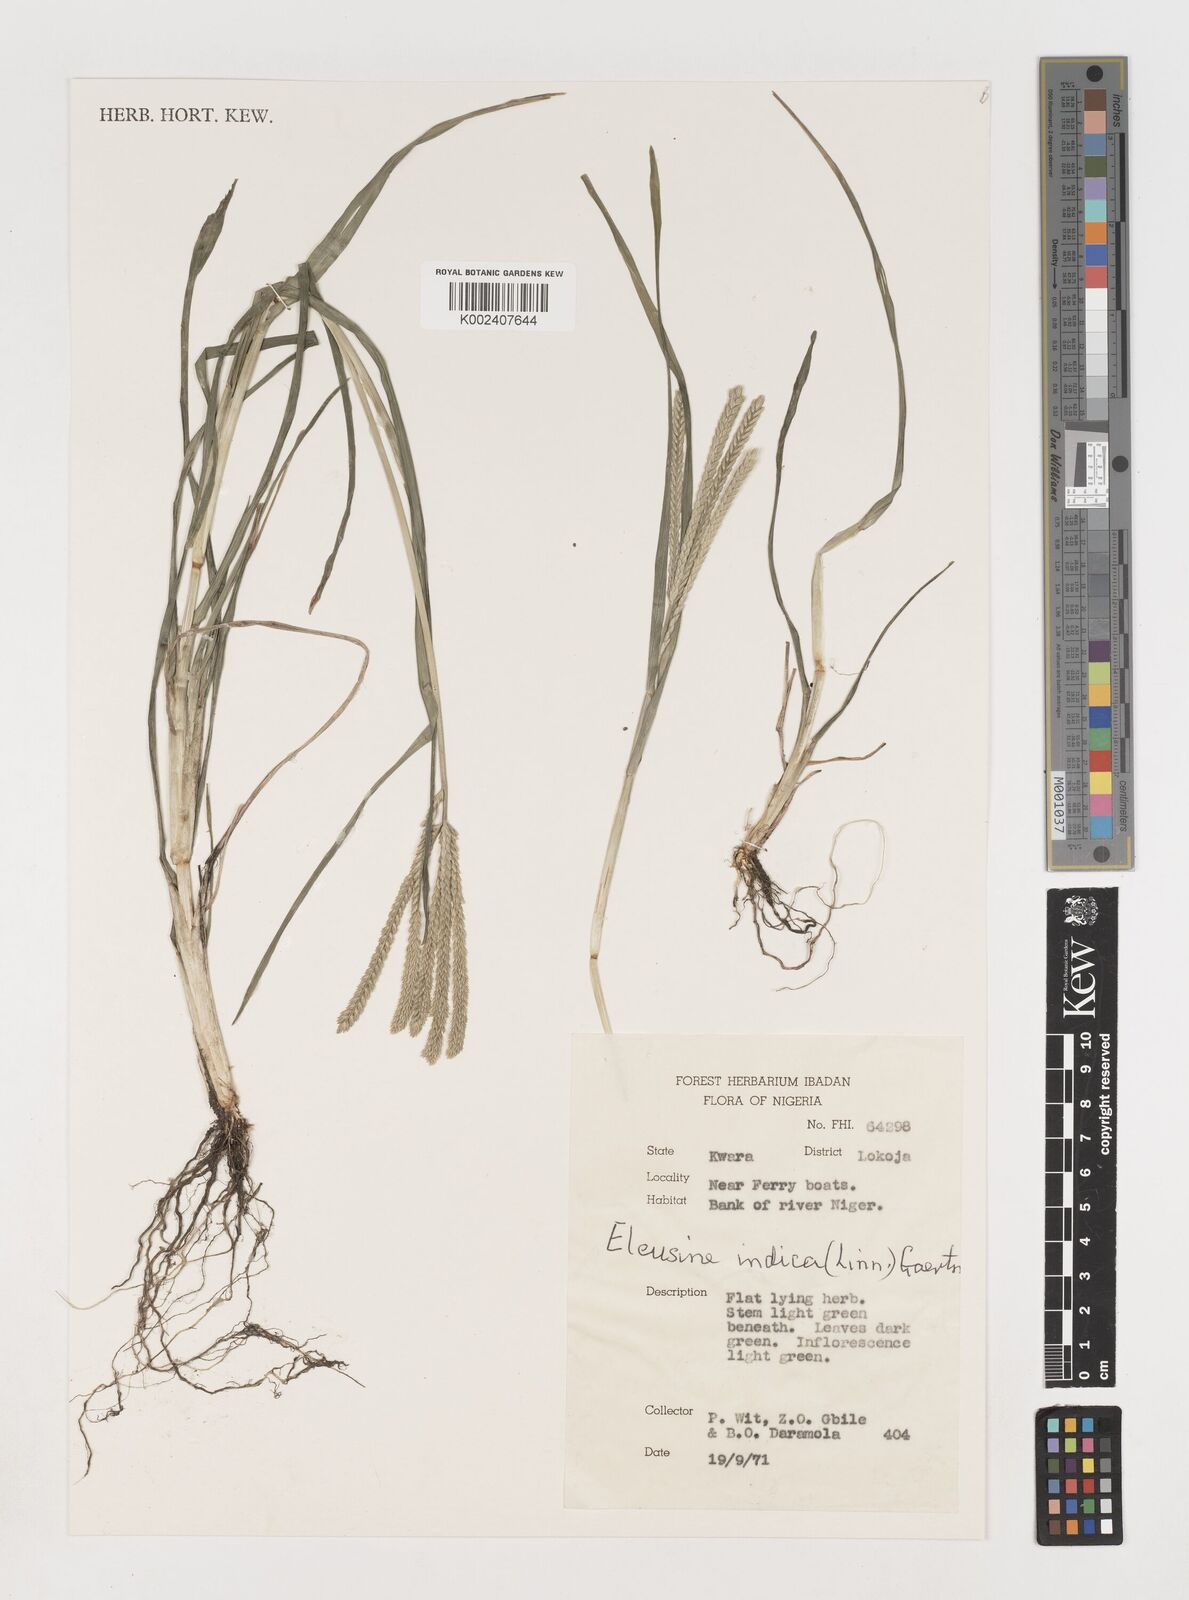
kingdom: Plantae
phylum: Tracheophyta
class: Liliopsida
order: Poales
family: Poaceae
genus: Eleusine
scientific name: Eleusine indica
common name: Yard-grass
